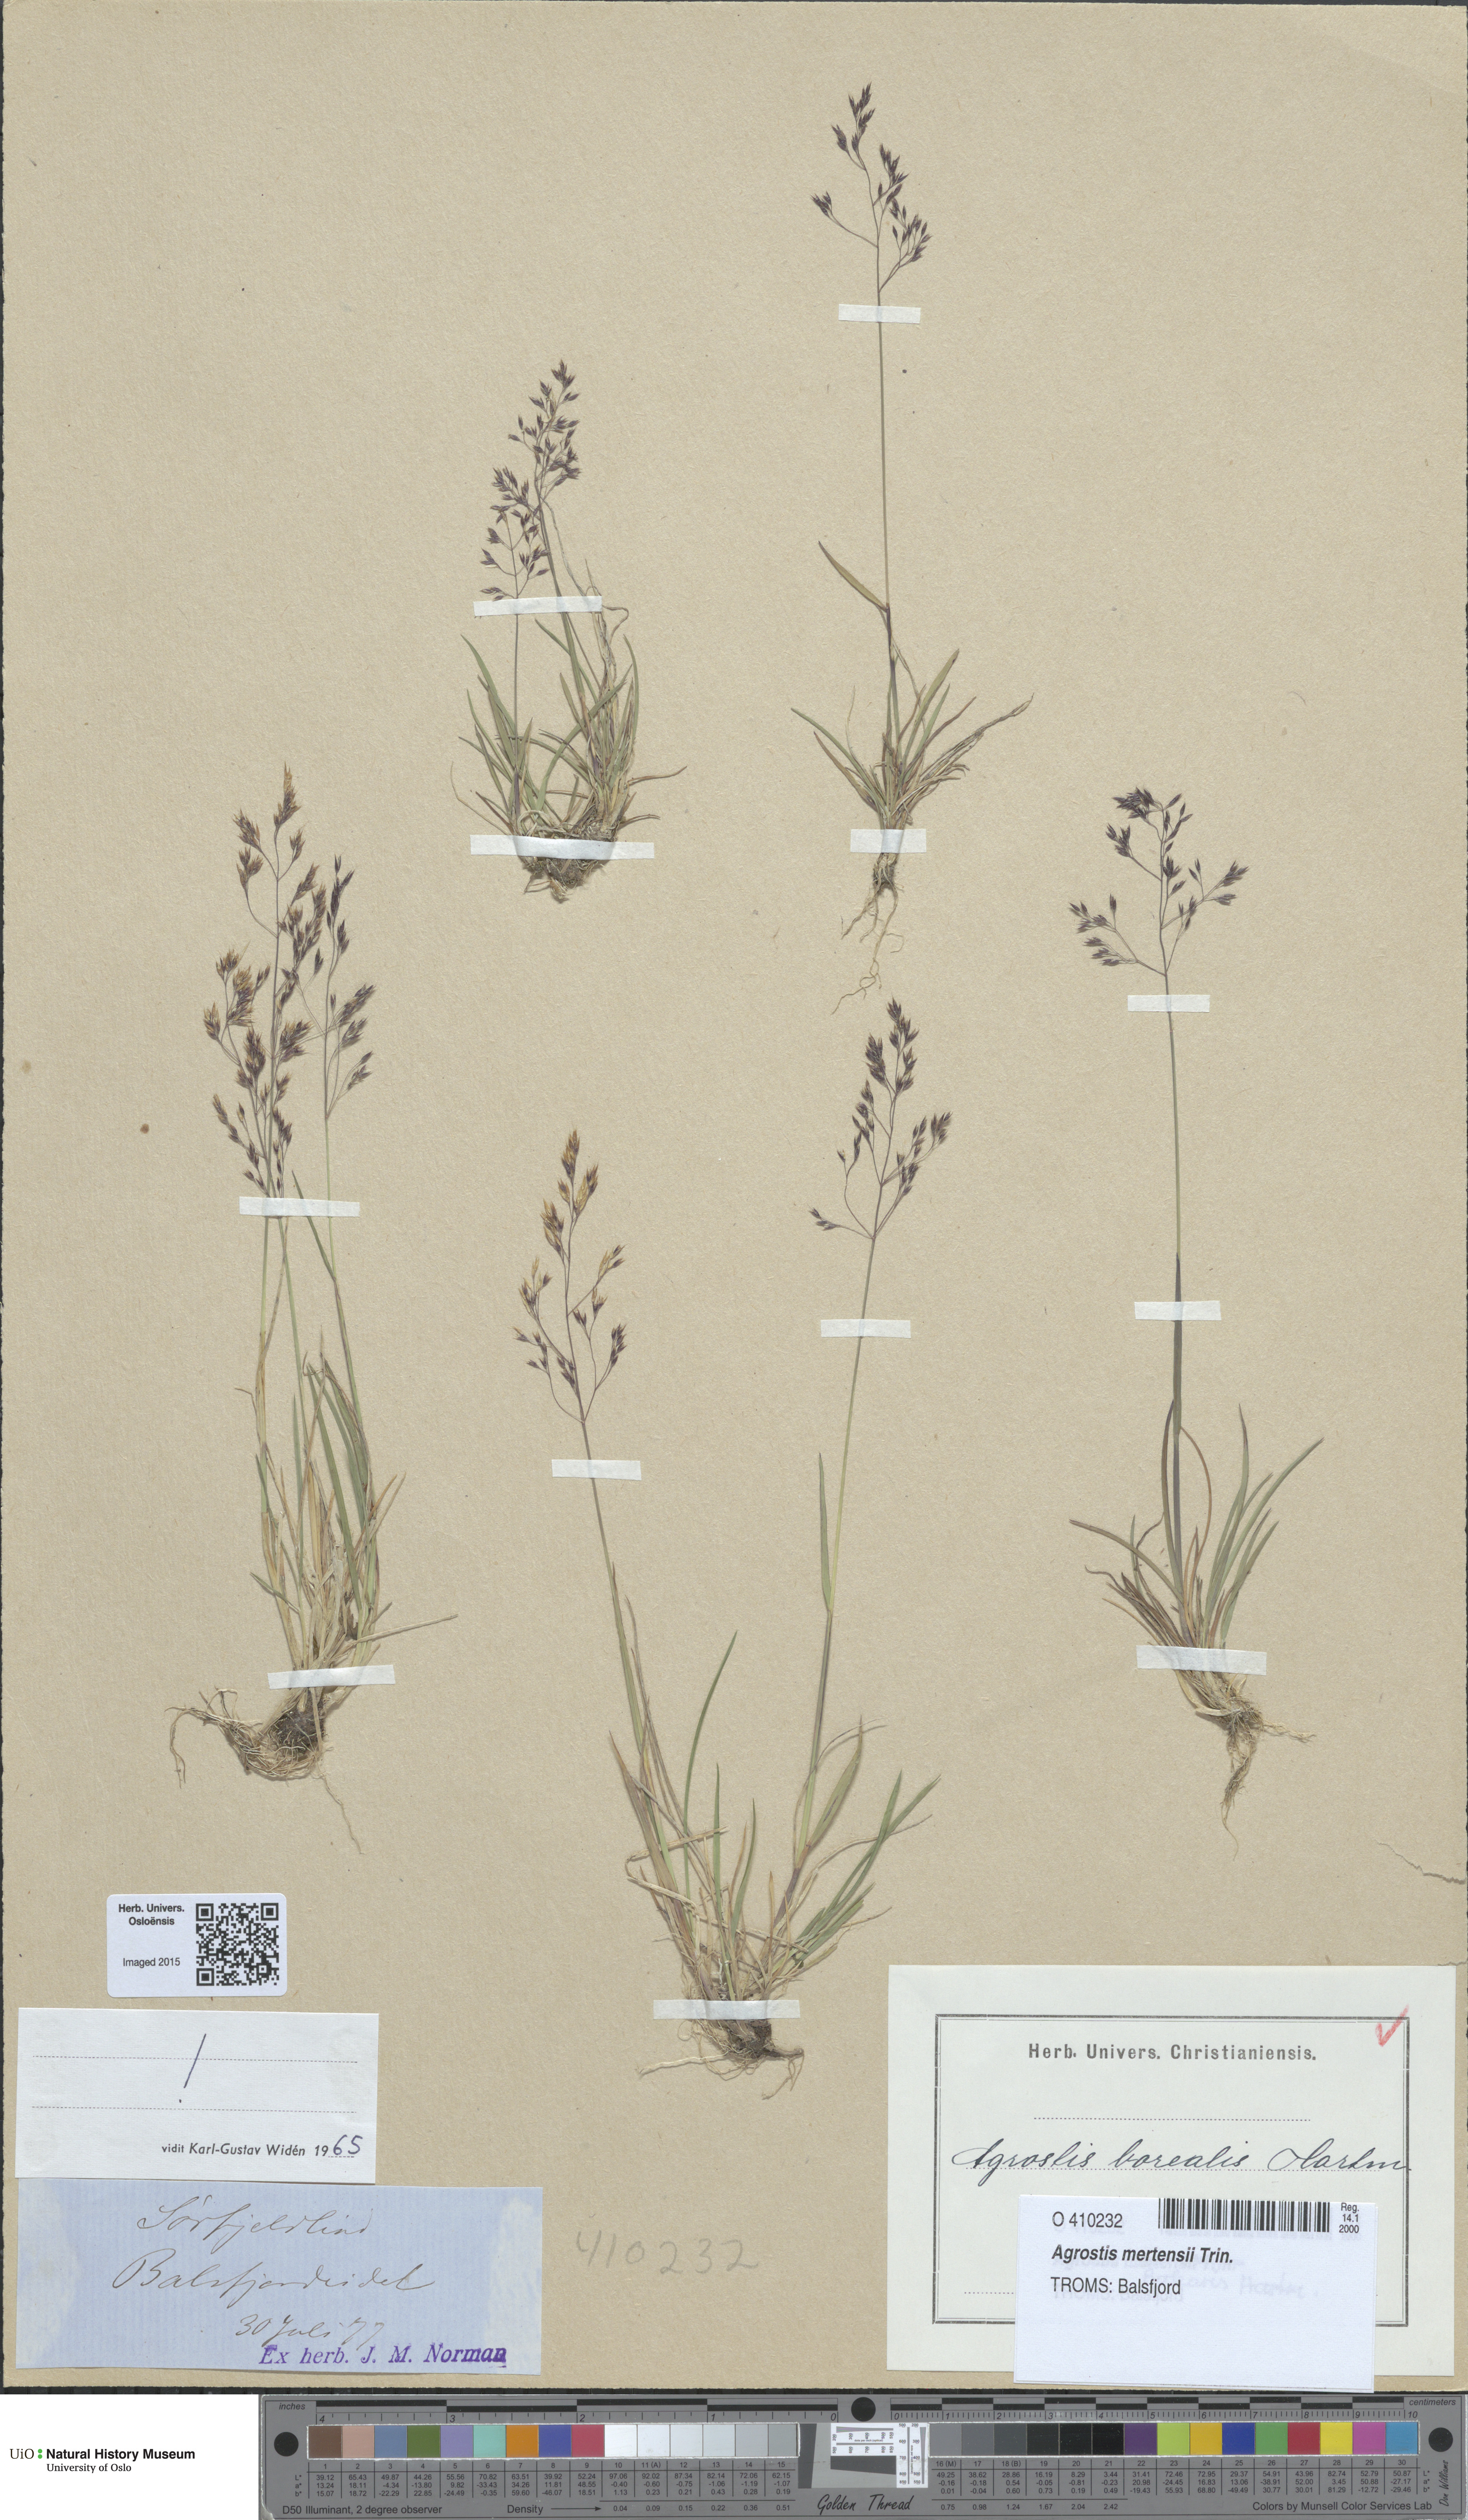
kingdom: Plantae
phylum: Tracheophyta
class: Liliopsida
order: Poales
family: Poaceae
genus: Agrostis
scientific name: Agrostis mertensii
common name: Northern bent
